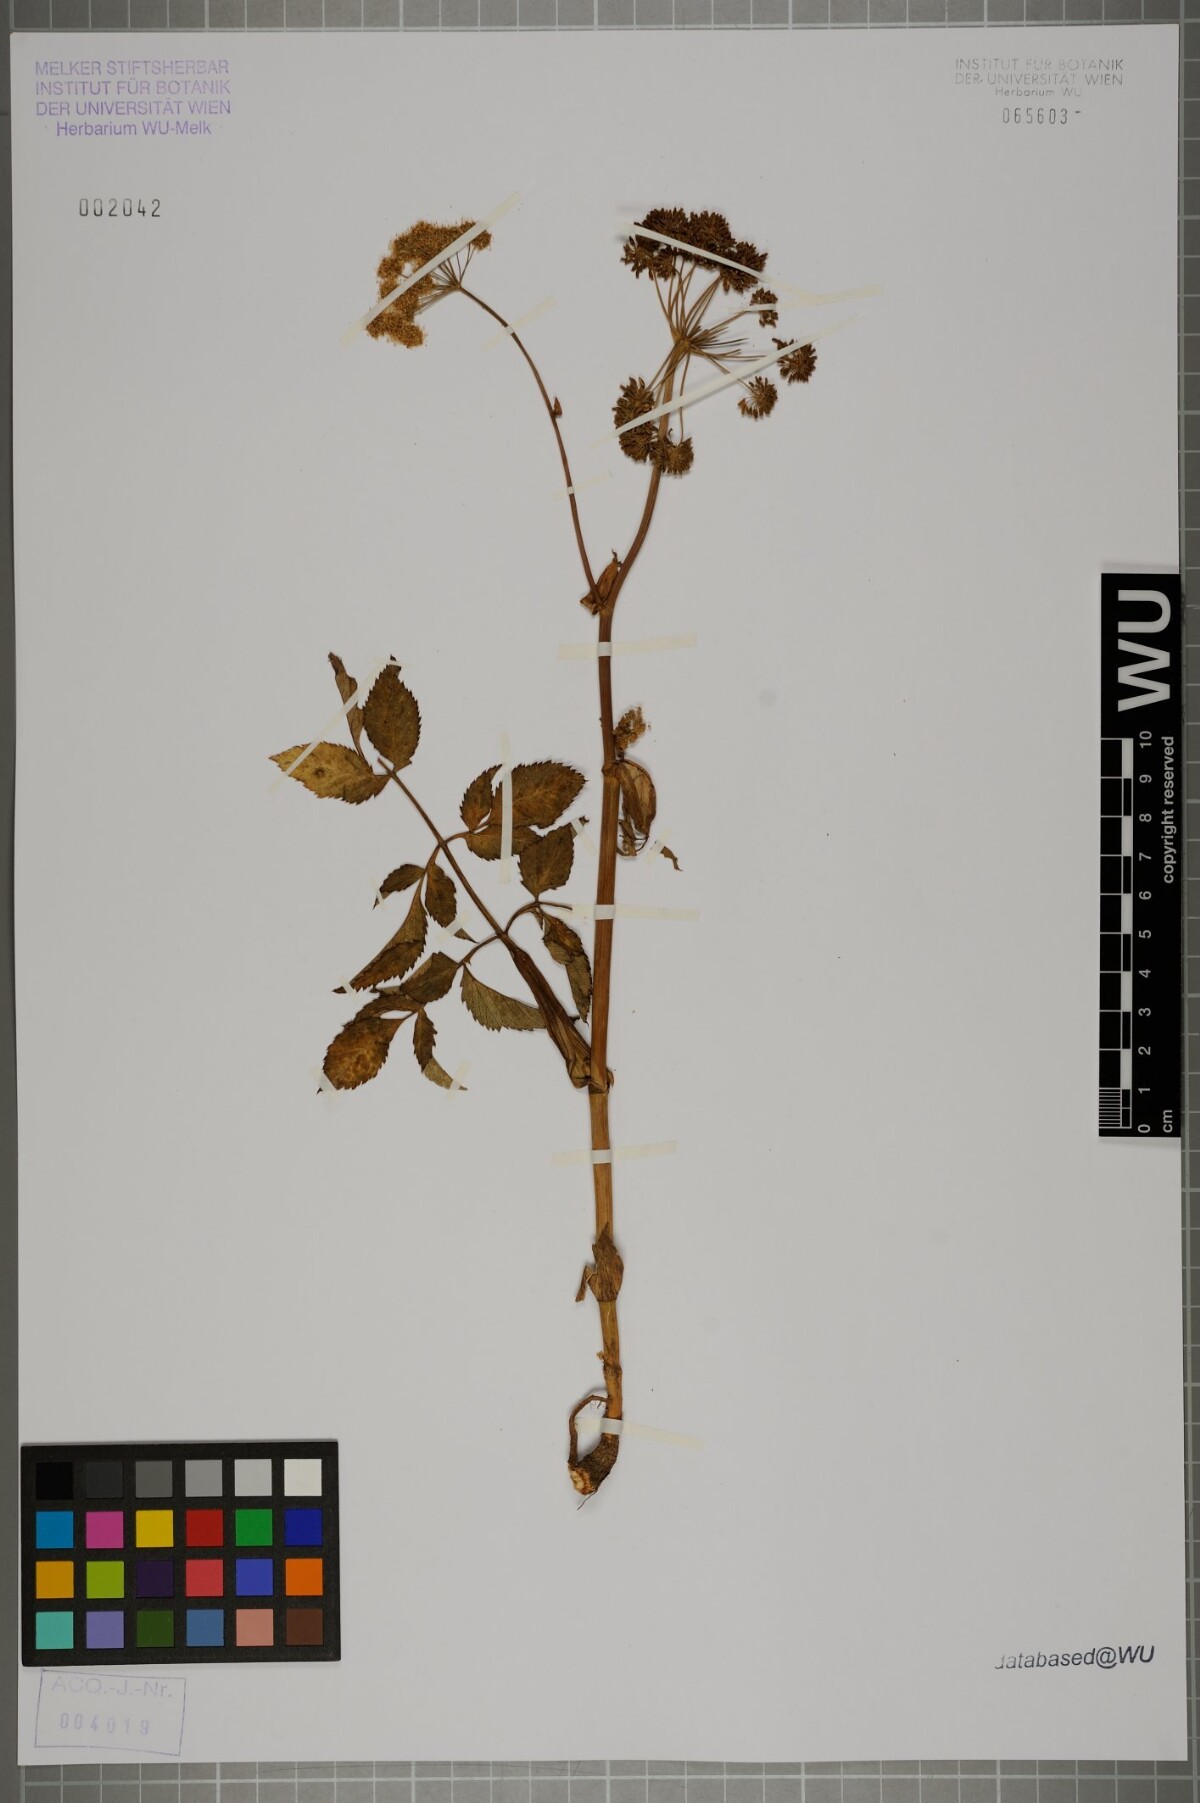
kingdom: Plantae
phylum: Tracheophyta
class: Magnoliopsida
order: Apiales
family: Apiaceae
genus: Angelica
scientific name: Angelica sylvestris
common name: Wild angelica
